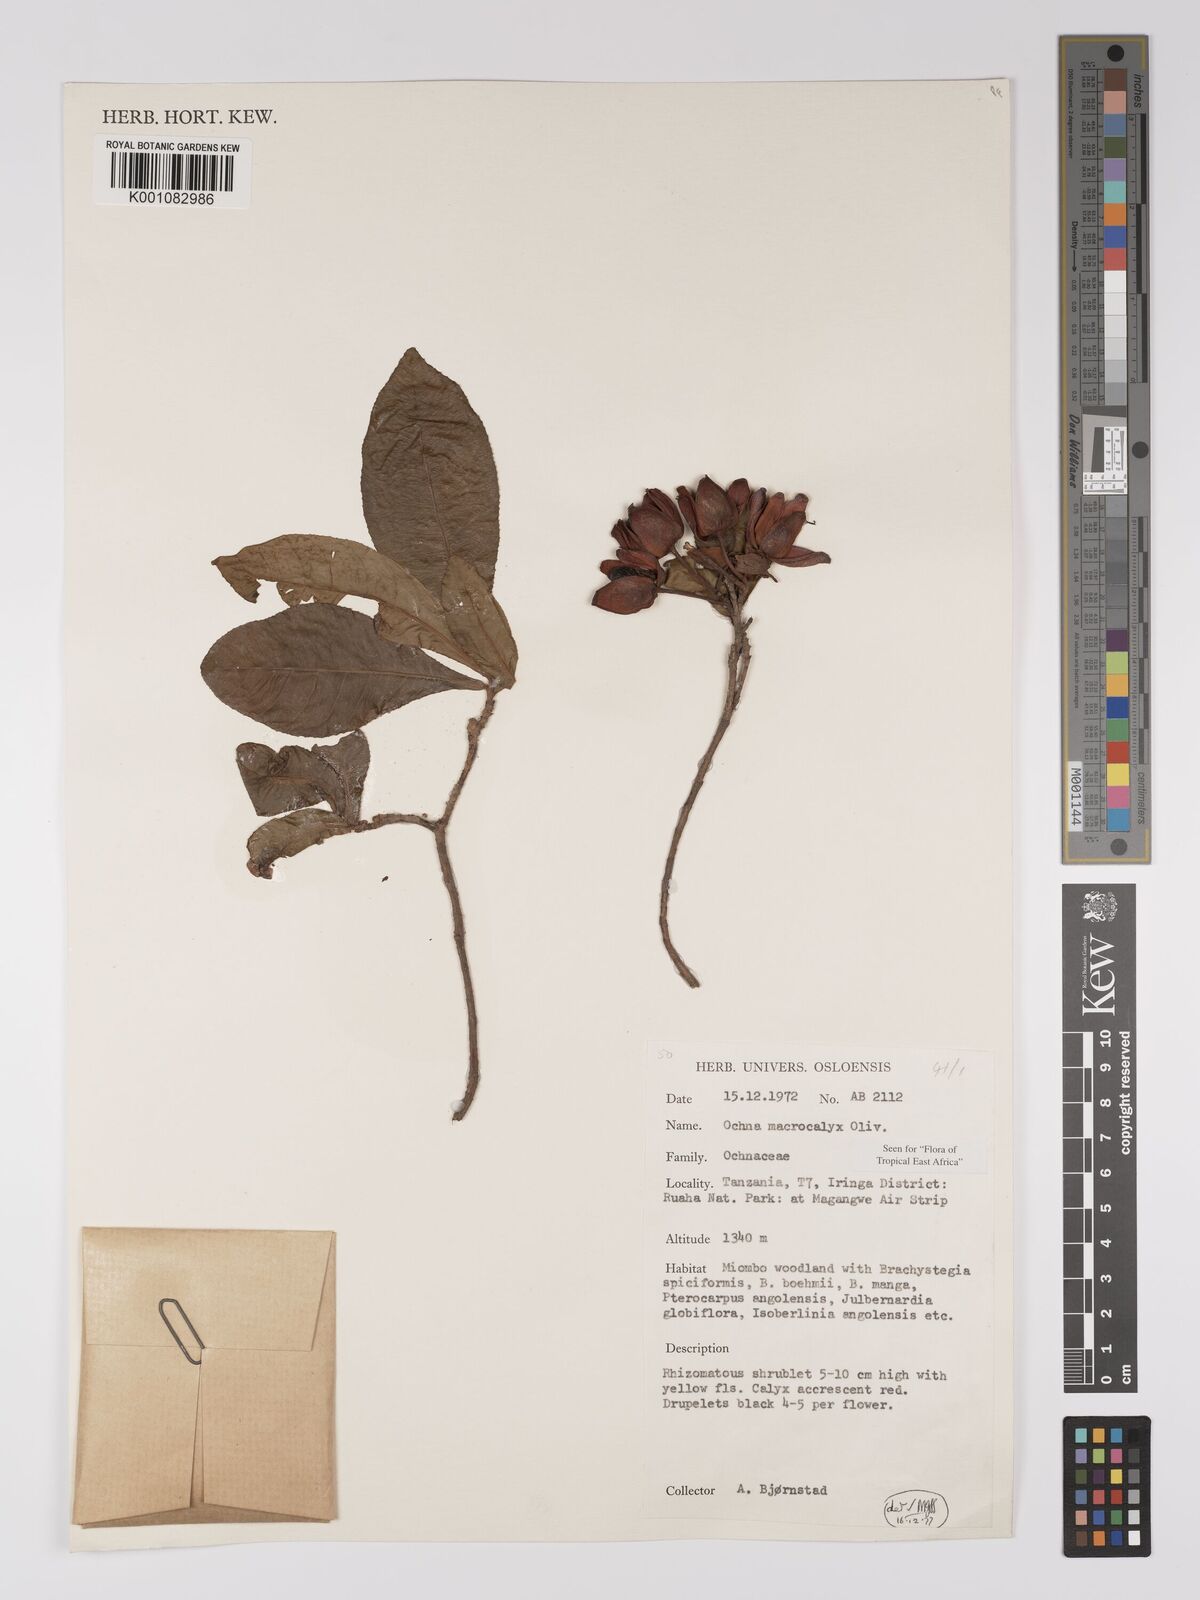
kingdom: Plantae
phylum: Tracheophyta
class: Magnoliopsida
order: Malpighiales
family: Ochnaceae
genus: Ochna
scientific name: Ochna macrocalyx
